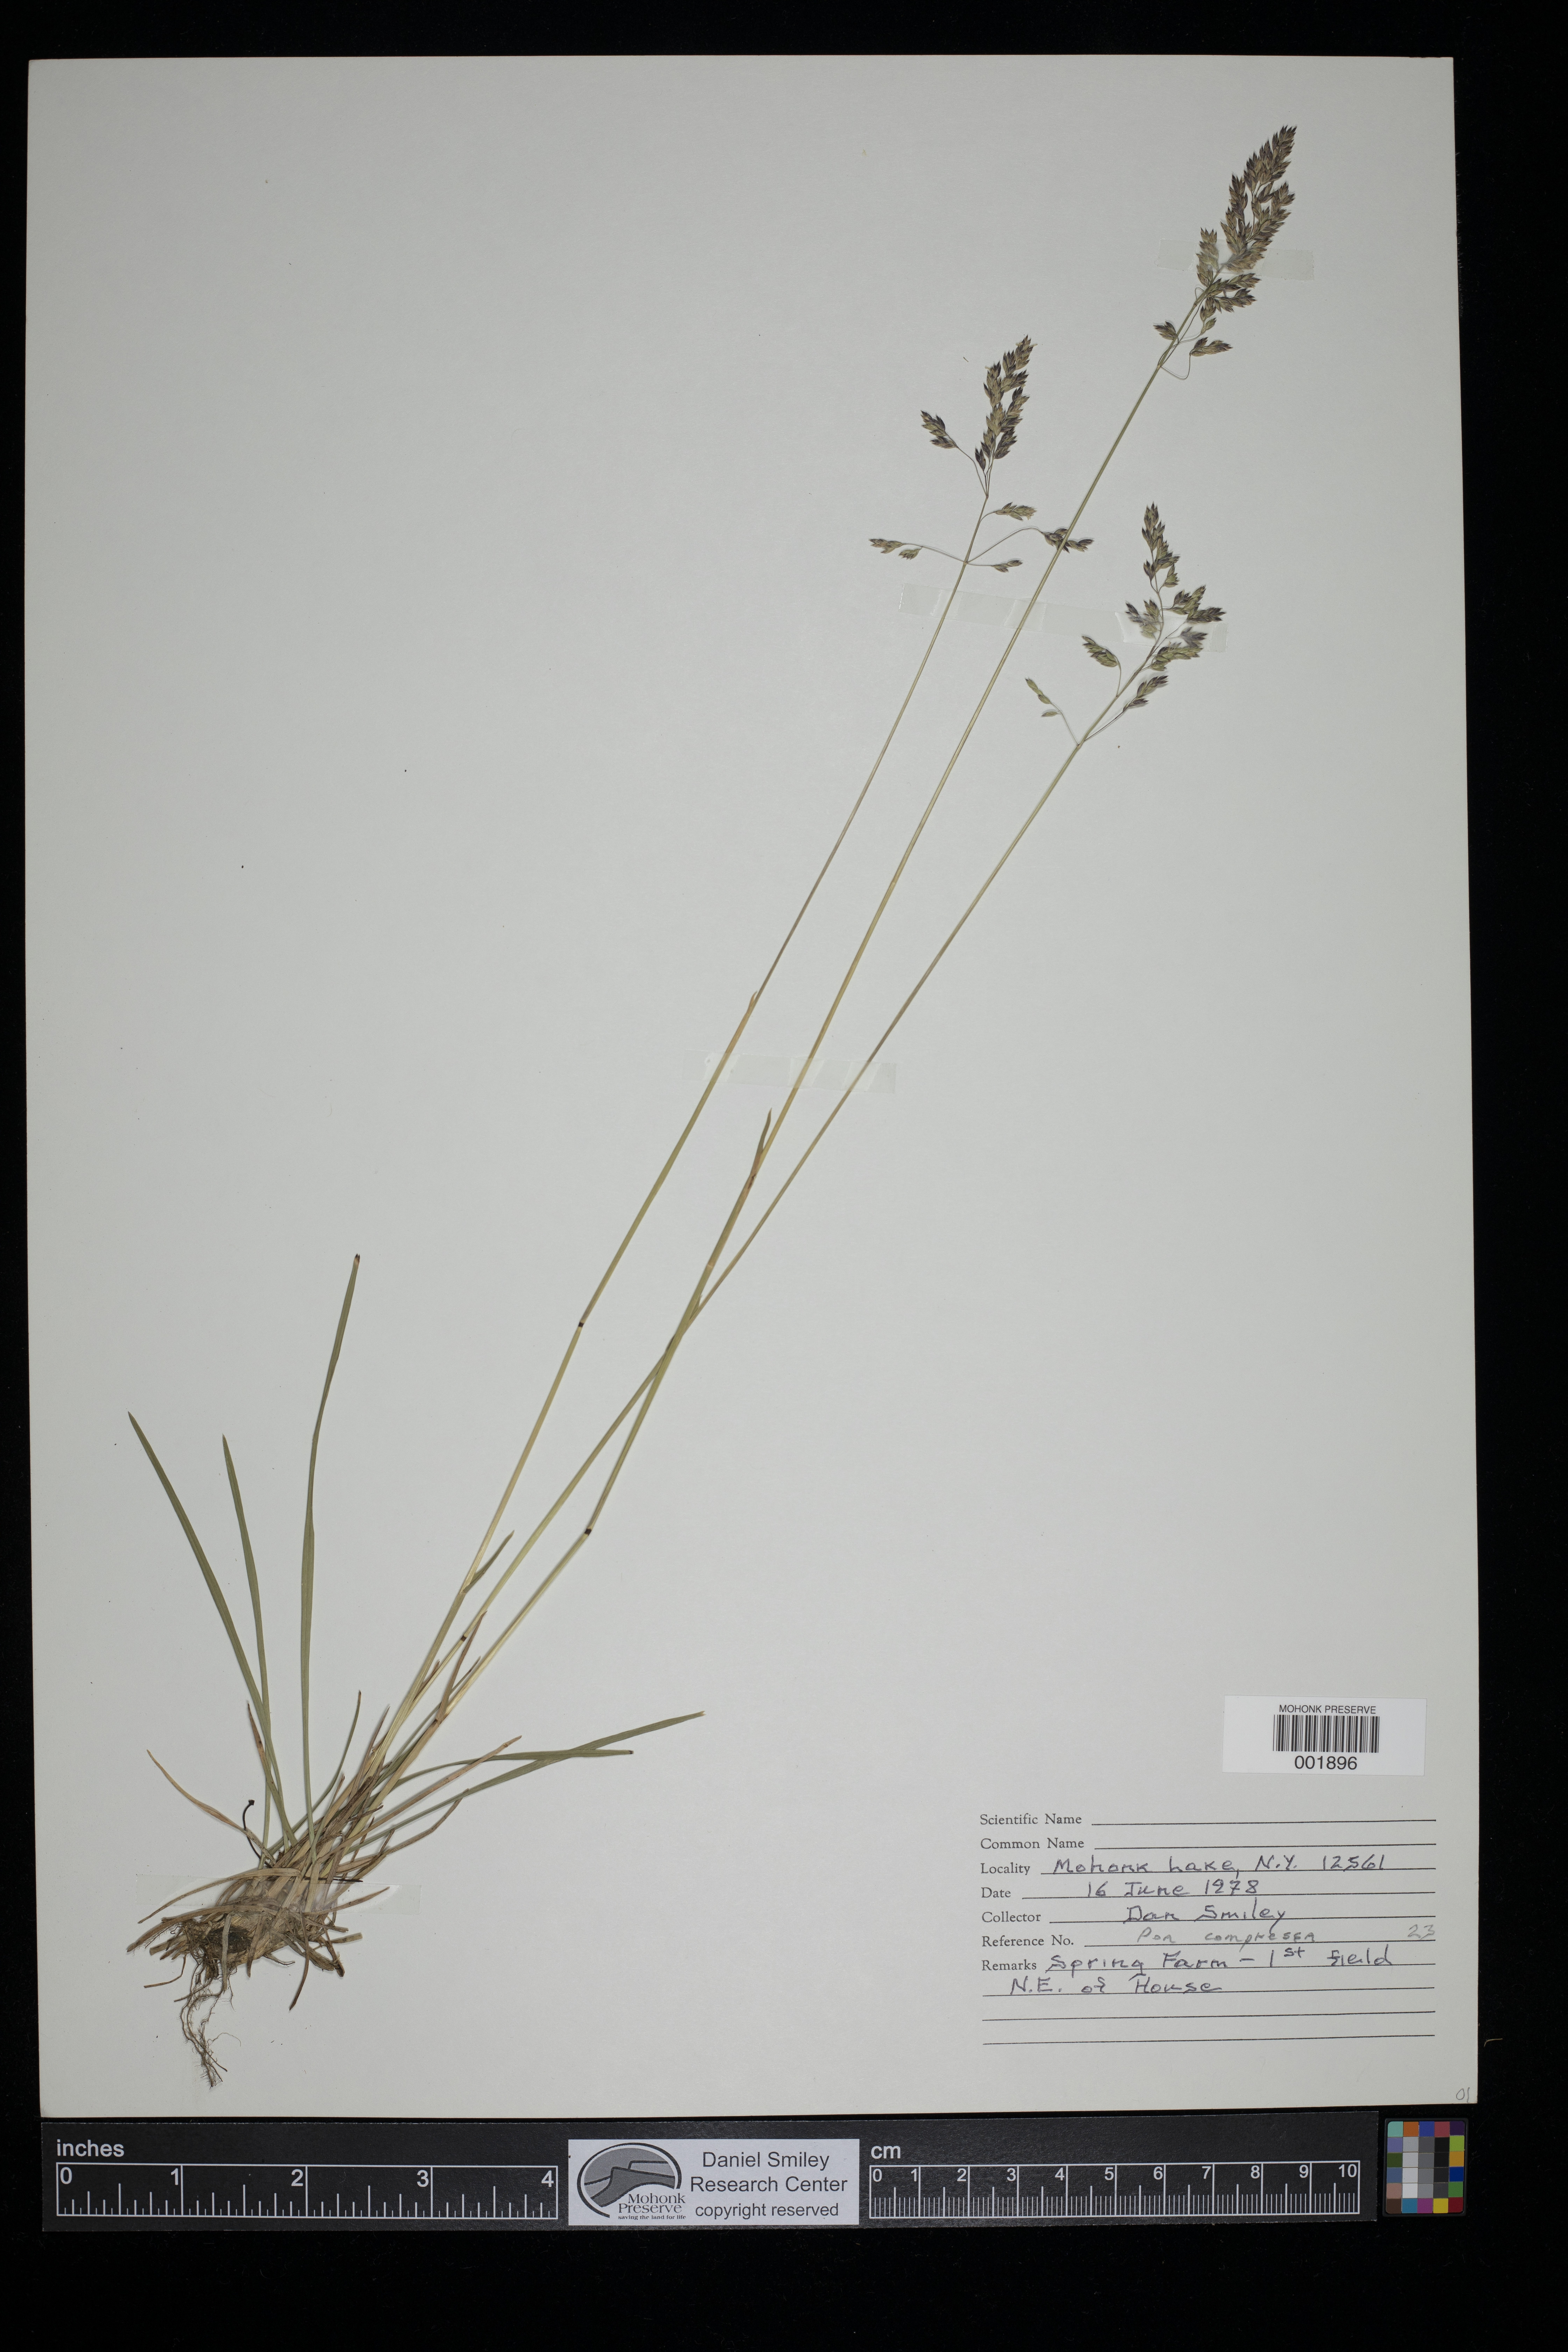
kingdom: Plantae
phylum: Tracheophyta
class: Liliopsida
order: Poales
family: Poaceae
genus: Poa
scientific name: Poa compressa
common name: Canada bluegrass
